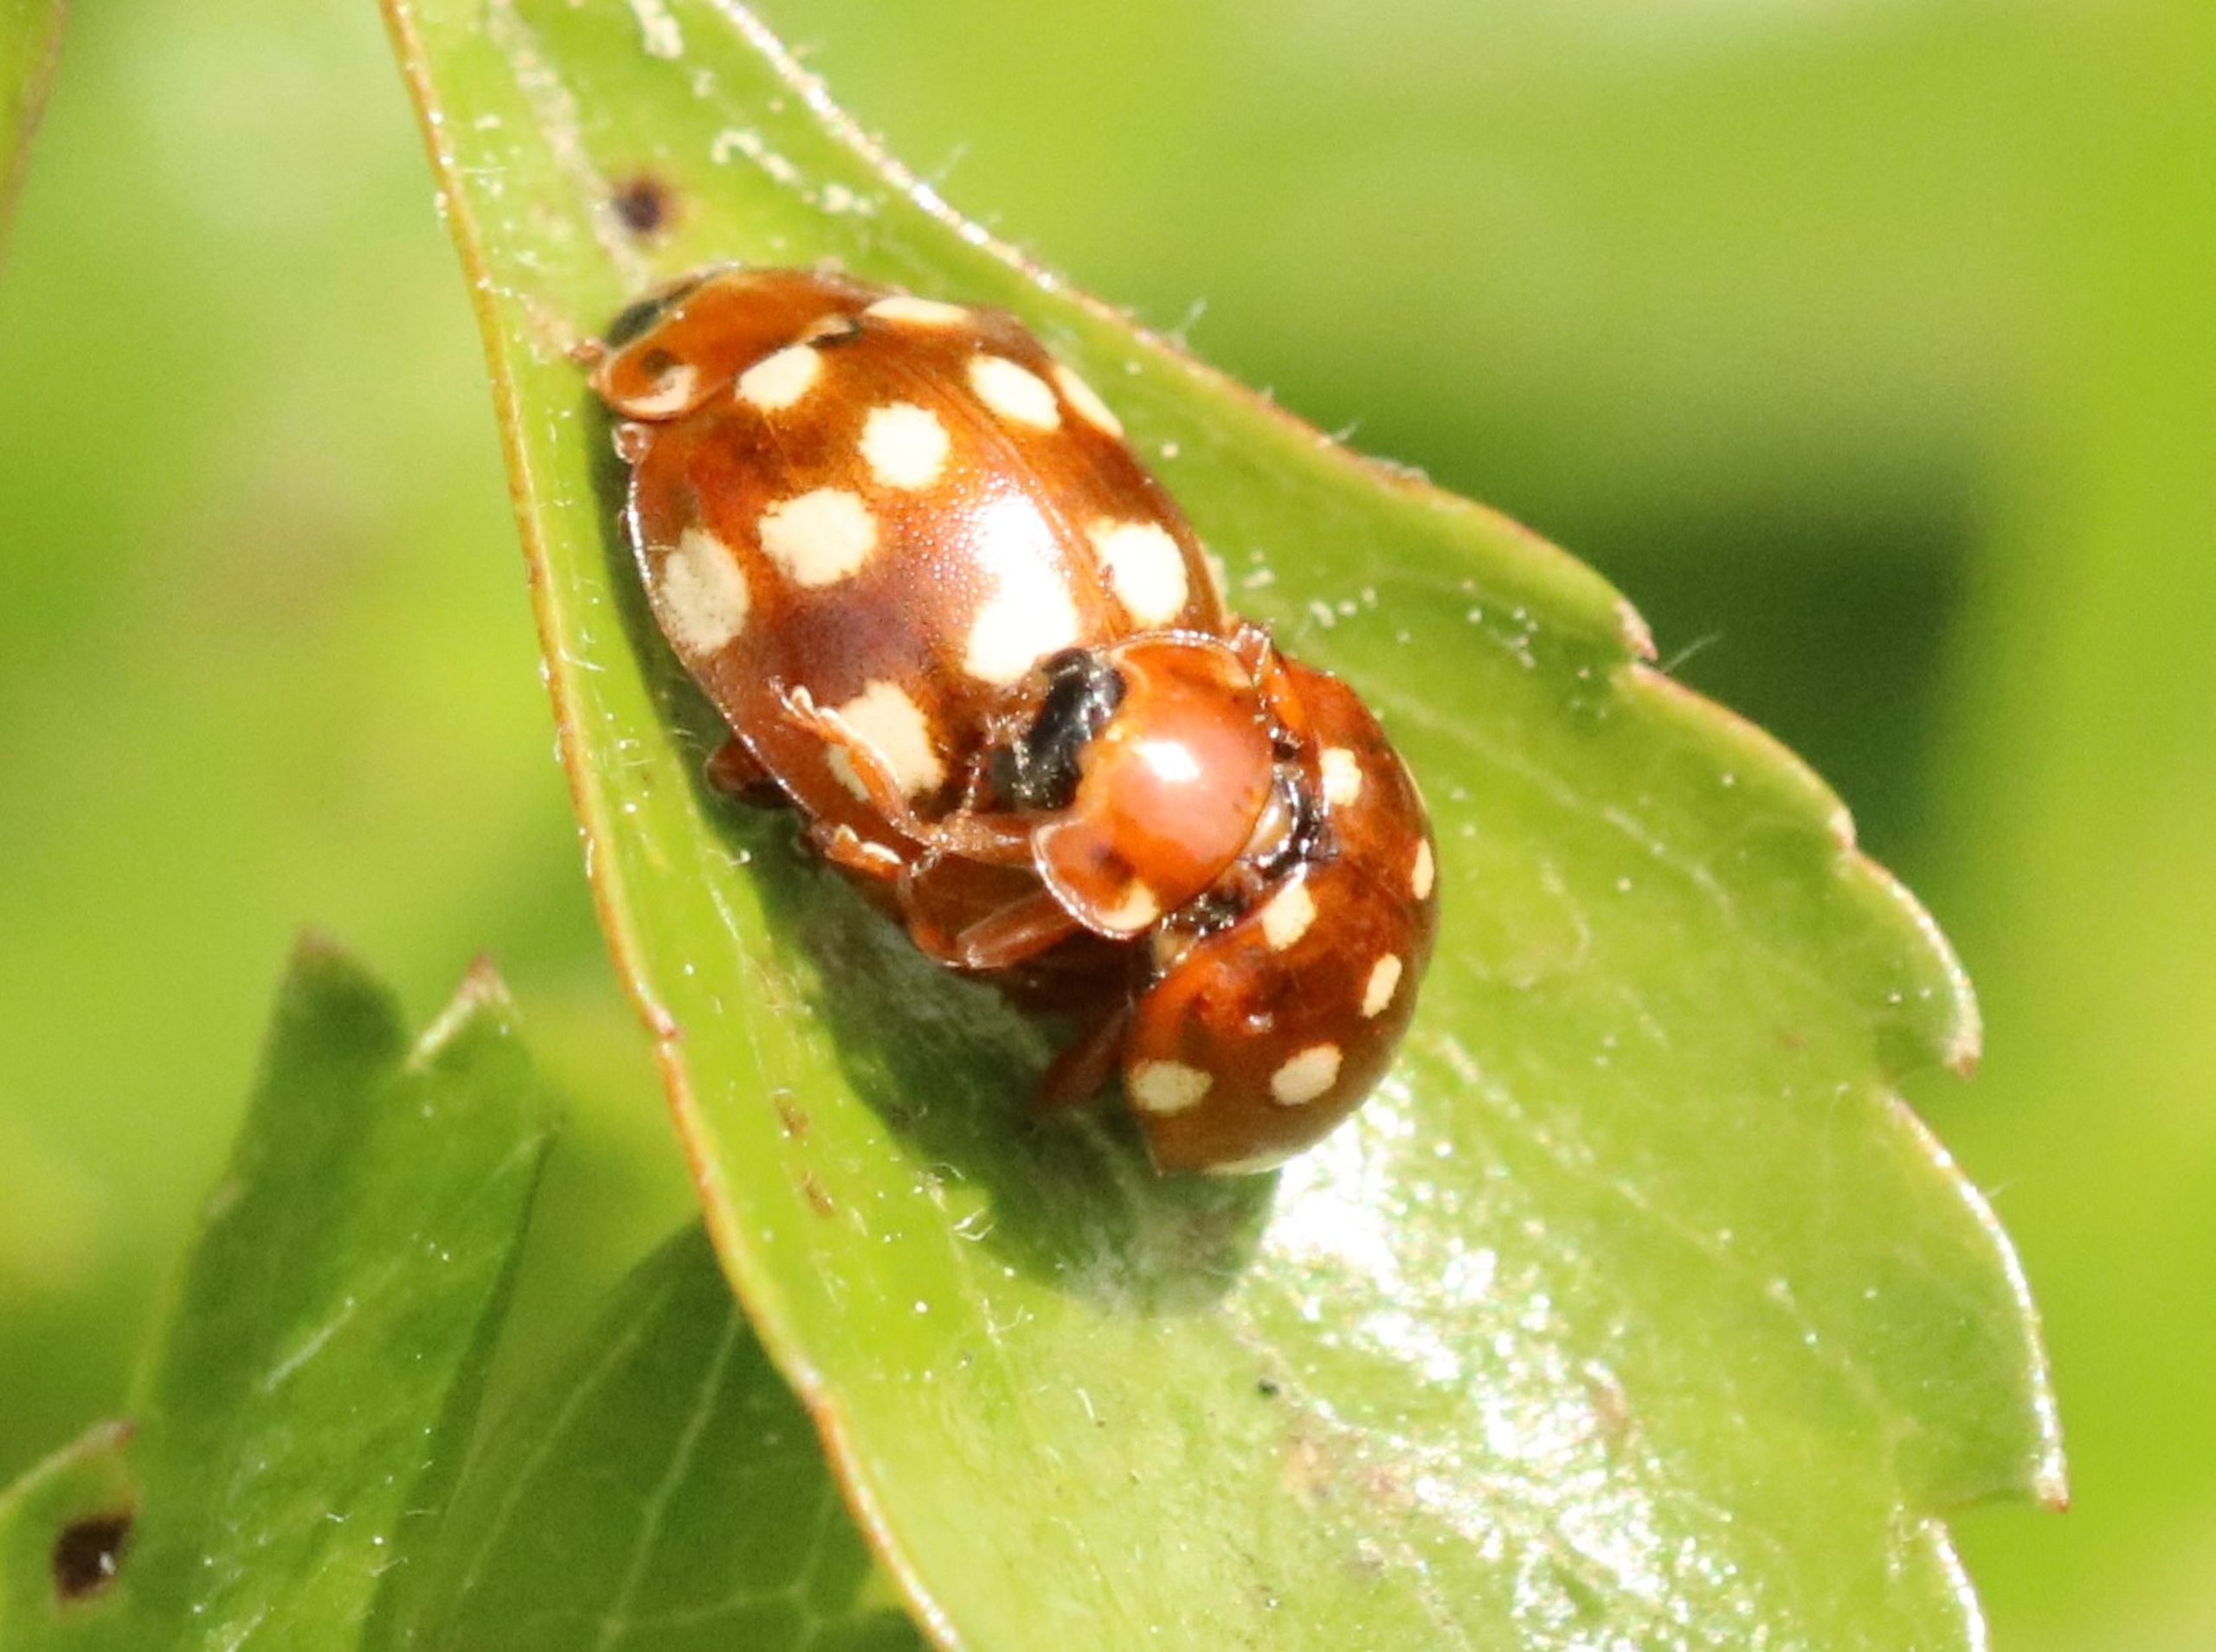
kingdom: Animalia
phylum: Arthropoda
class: Insecta
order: Coleoptera
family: Coccinellidae
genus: Calvia
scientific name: Calvia quatuordecimguttata
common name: Fjortenplettet mariehøne
